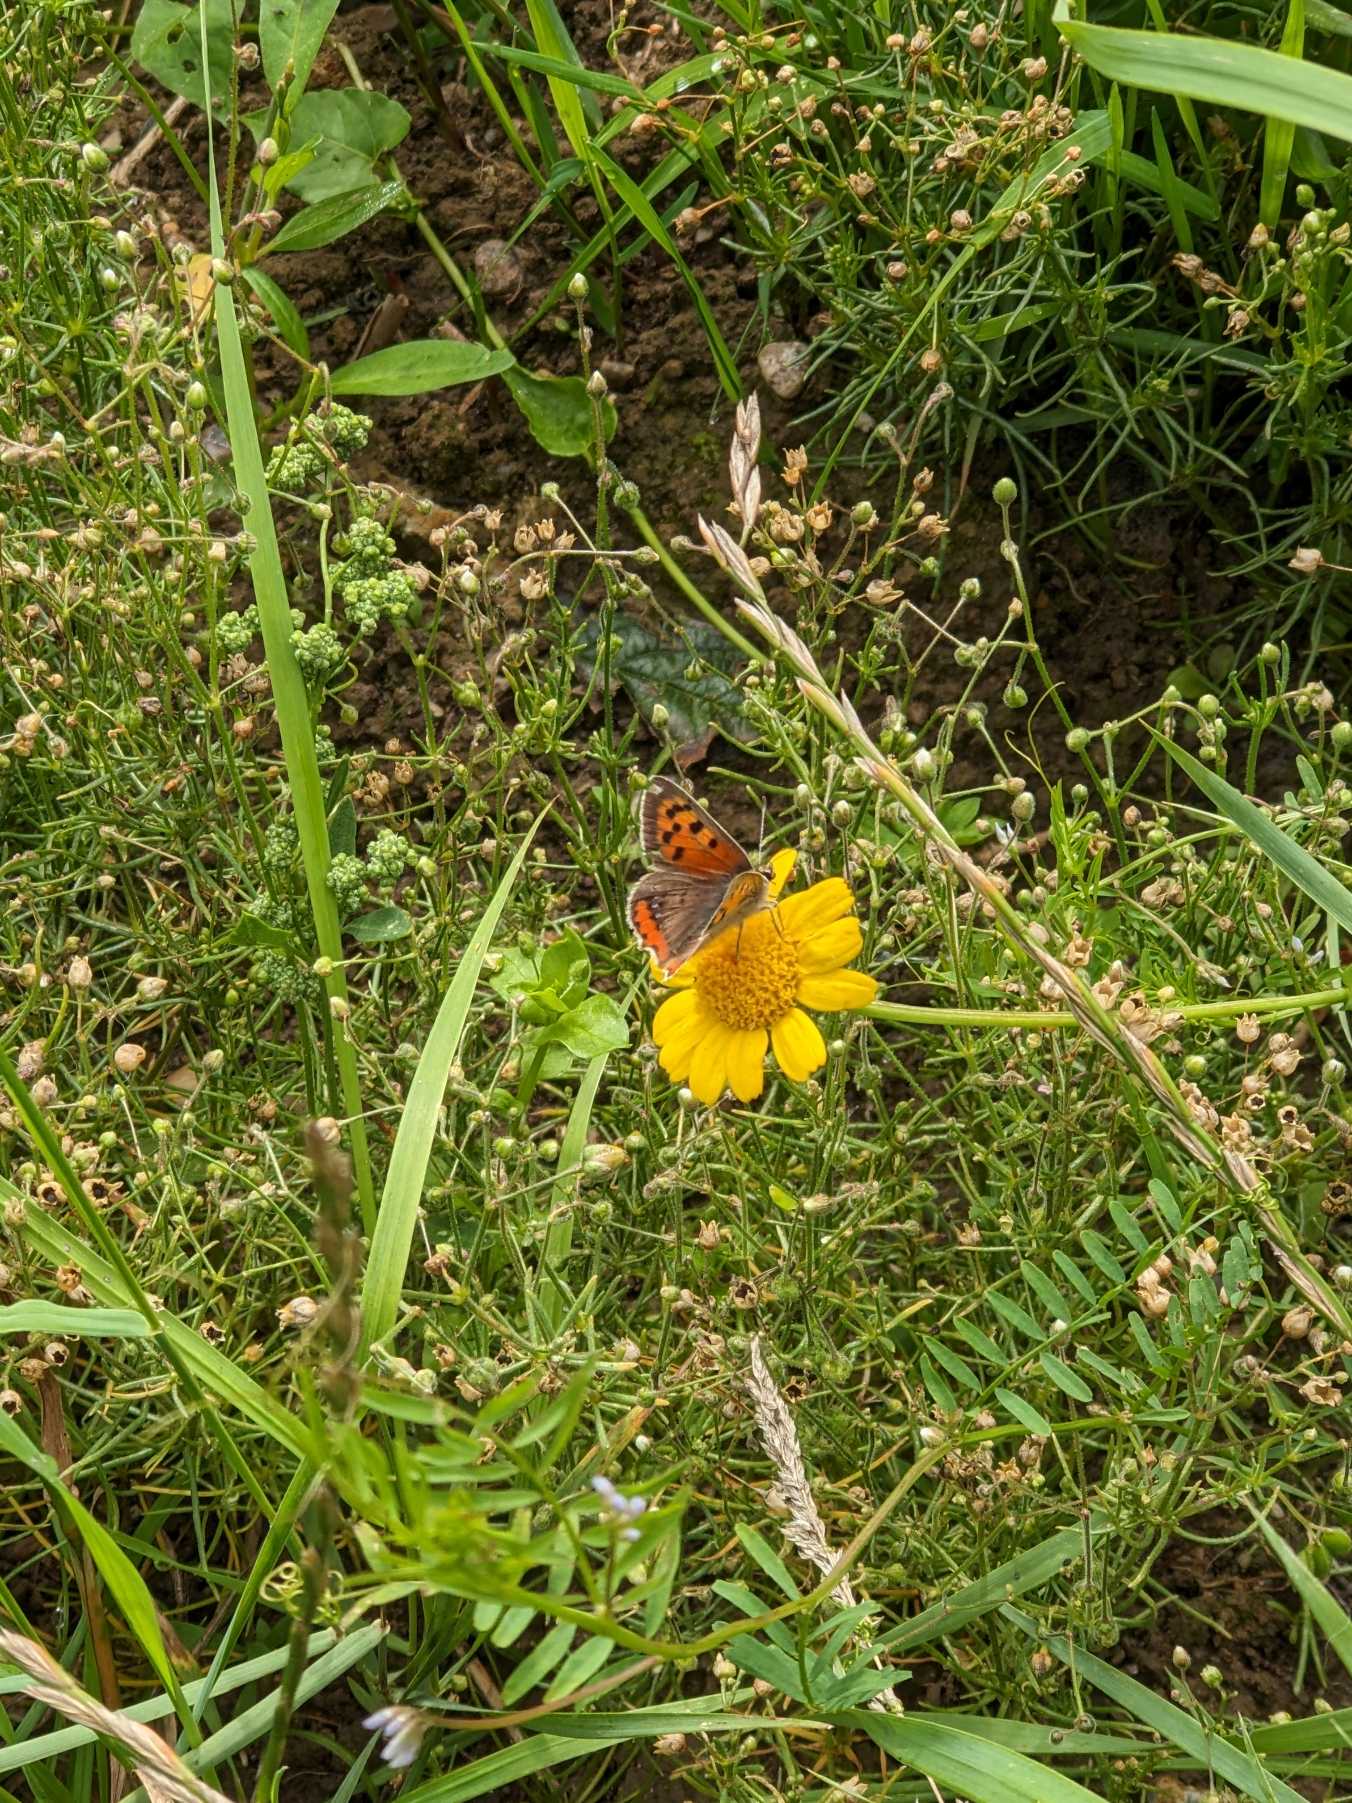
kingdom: Animalia
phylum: Arthropoda
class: Insecta
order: Lepidoptera
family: Lycaenidae
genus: Lycaena
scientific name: Lycaena phlaeas
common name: Lille ildfugl
